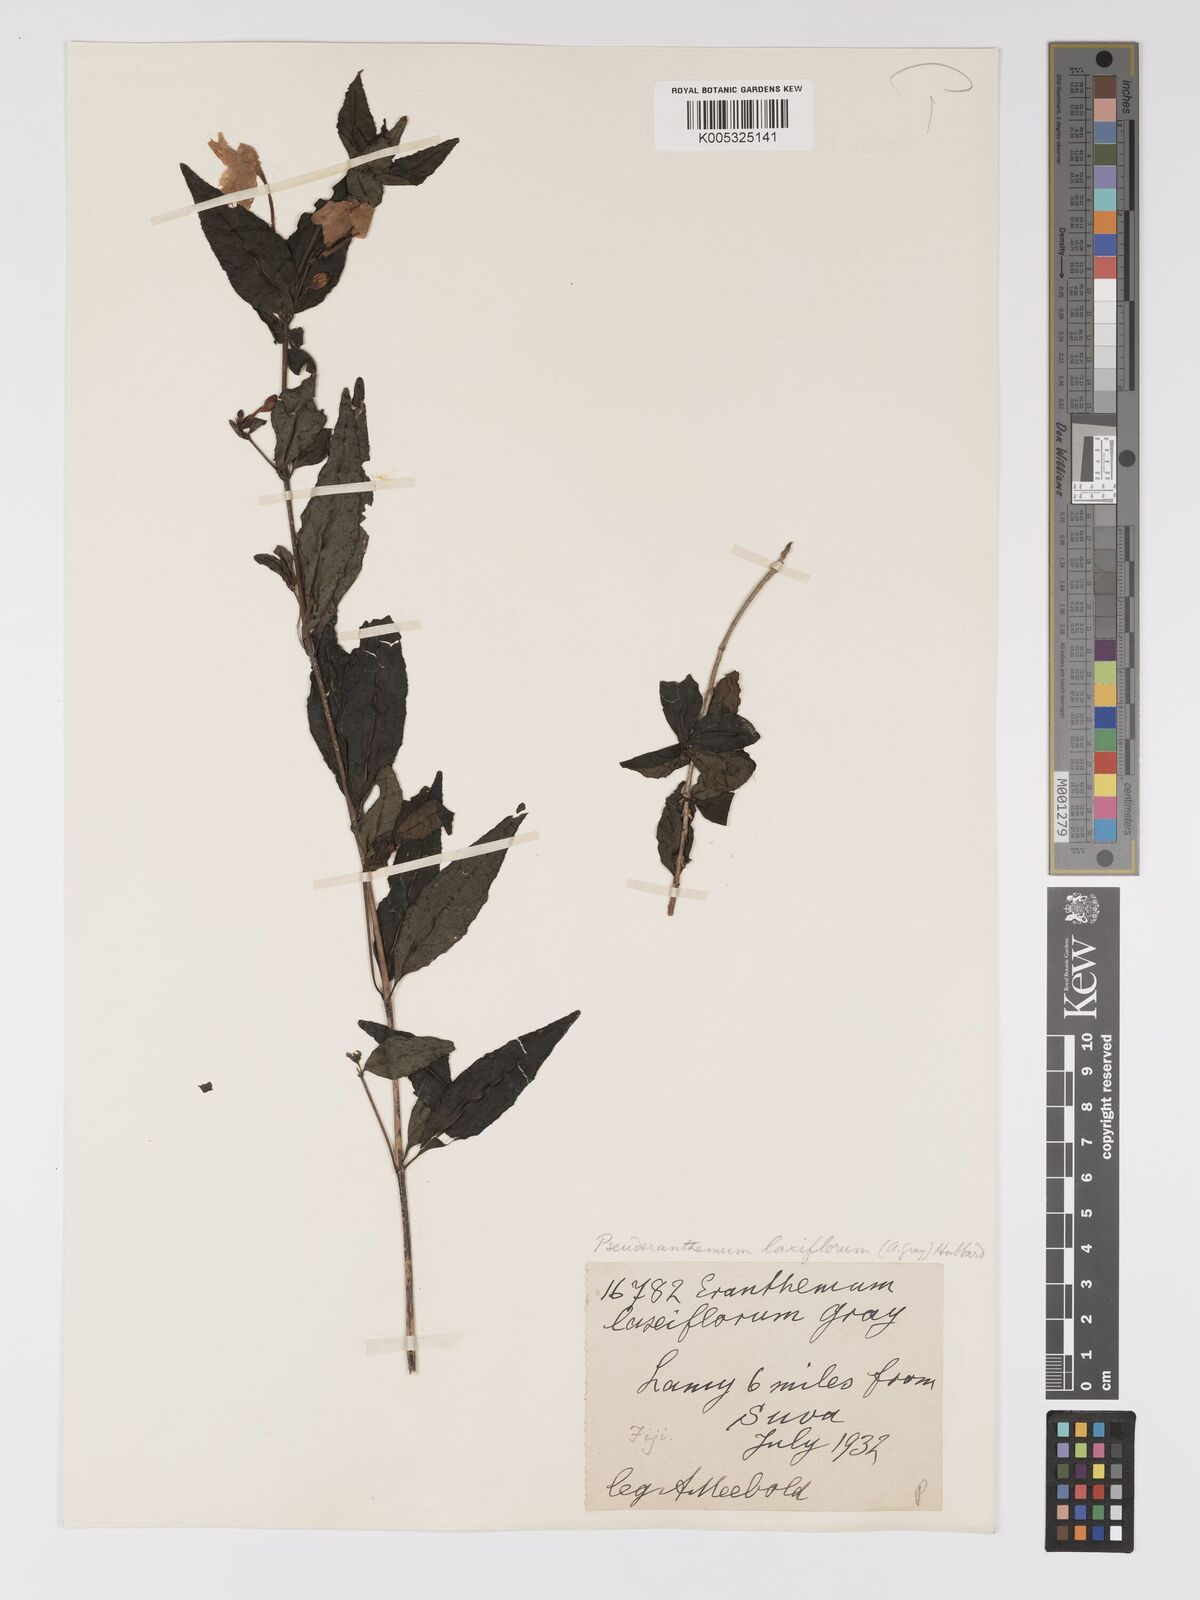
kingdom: Plantae
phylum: Tracheophyta
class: Magnoliopsida
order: Lamiales
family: Acanthaceae
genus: Pseuderanthemum
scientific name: Pseuderanthemum laxiflorum
